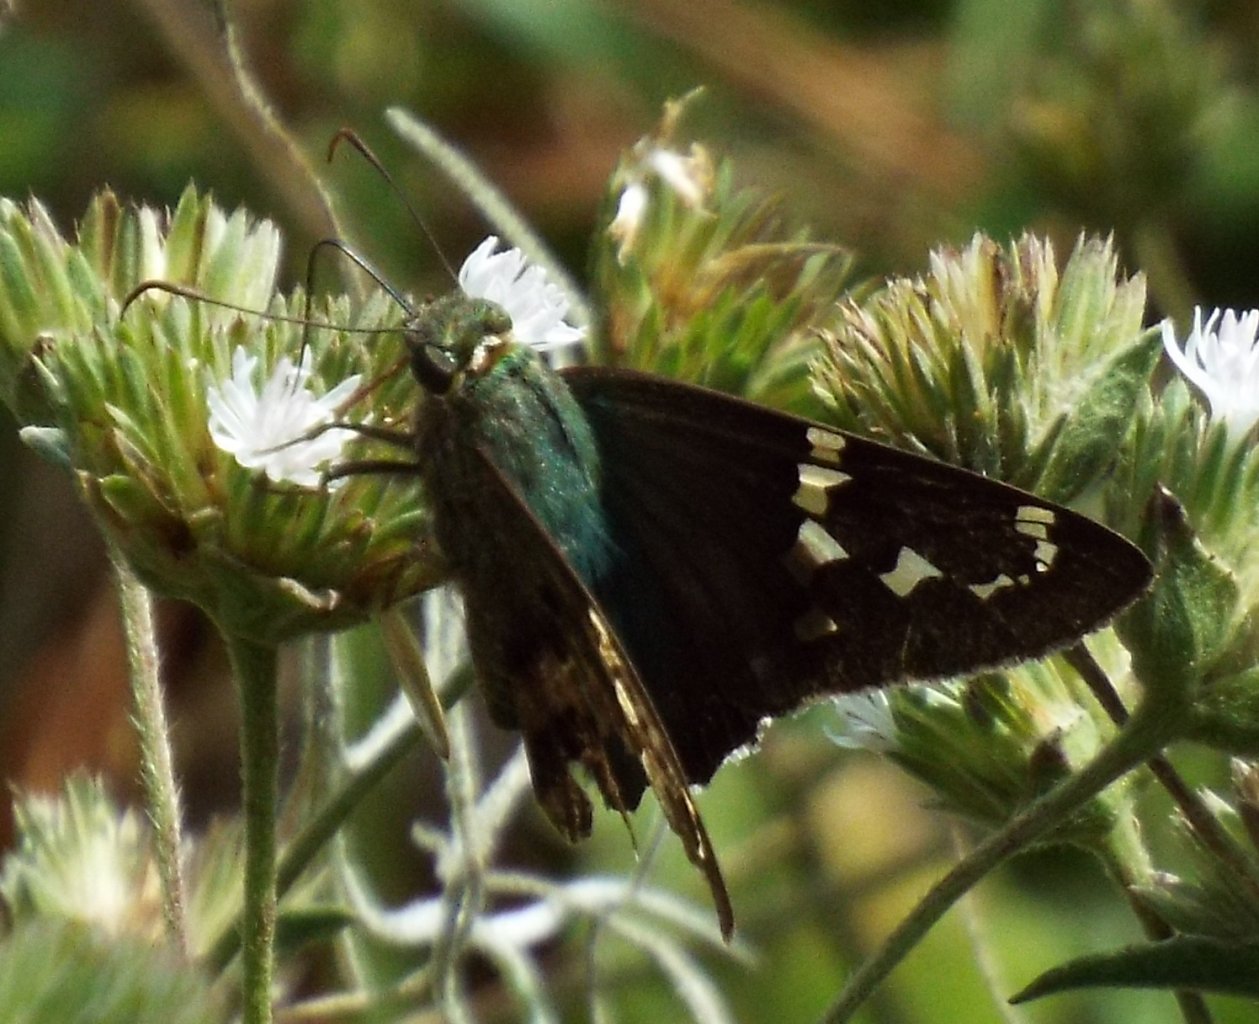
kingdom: Animalia
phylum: Arthropoda
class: Insecta
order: Lepidoptera
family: Hesperiidae
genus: Urbanus
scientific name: Urbanus proteus
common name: Long-tailed Skipper
